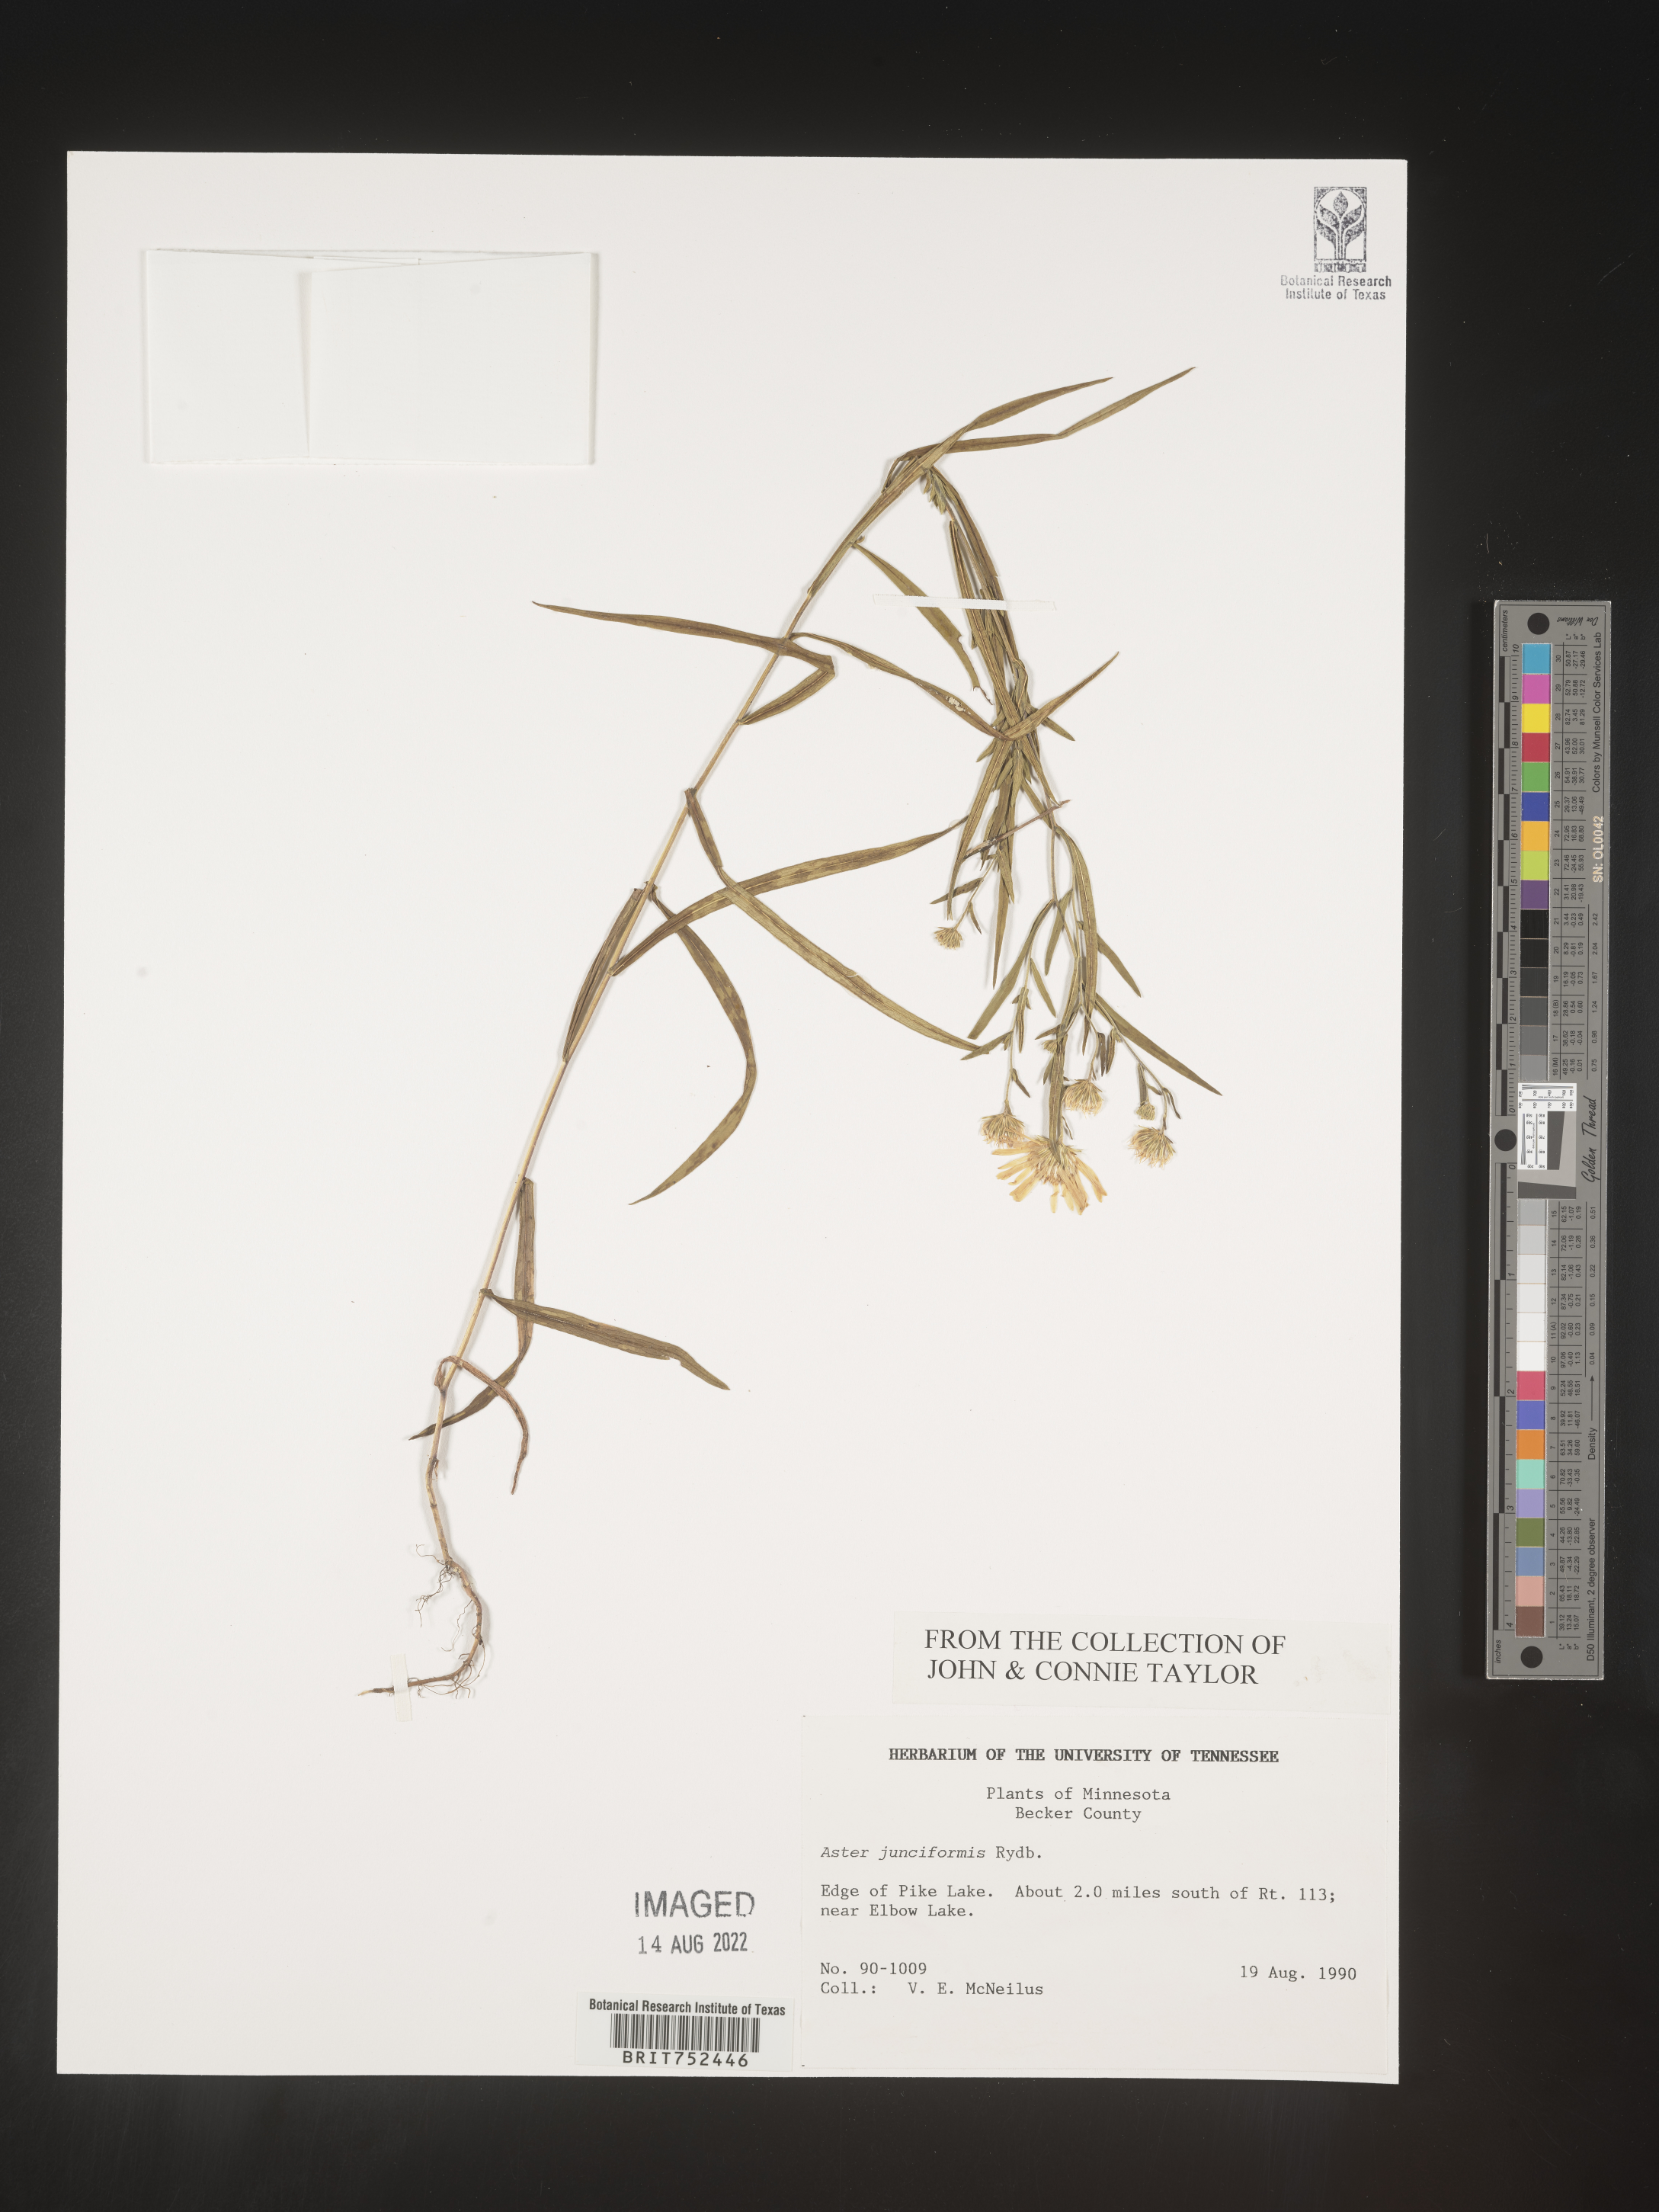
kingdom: Plantae
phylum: Tracheophyta
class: Magnoliopsida
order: Asterales
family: Asteraceae
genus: Symphyotrichum
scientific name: Symphyotrichum boreale
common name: Northern bog aster
